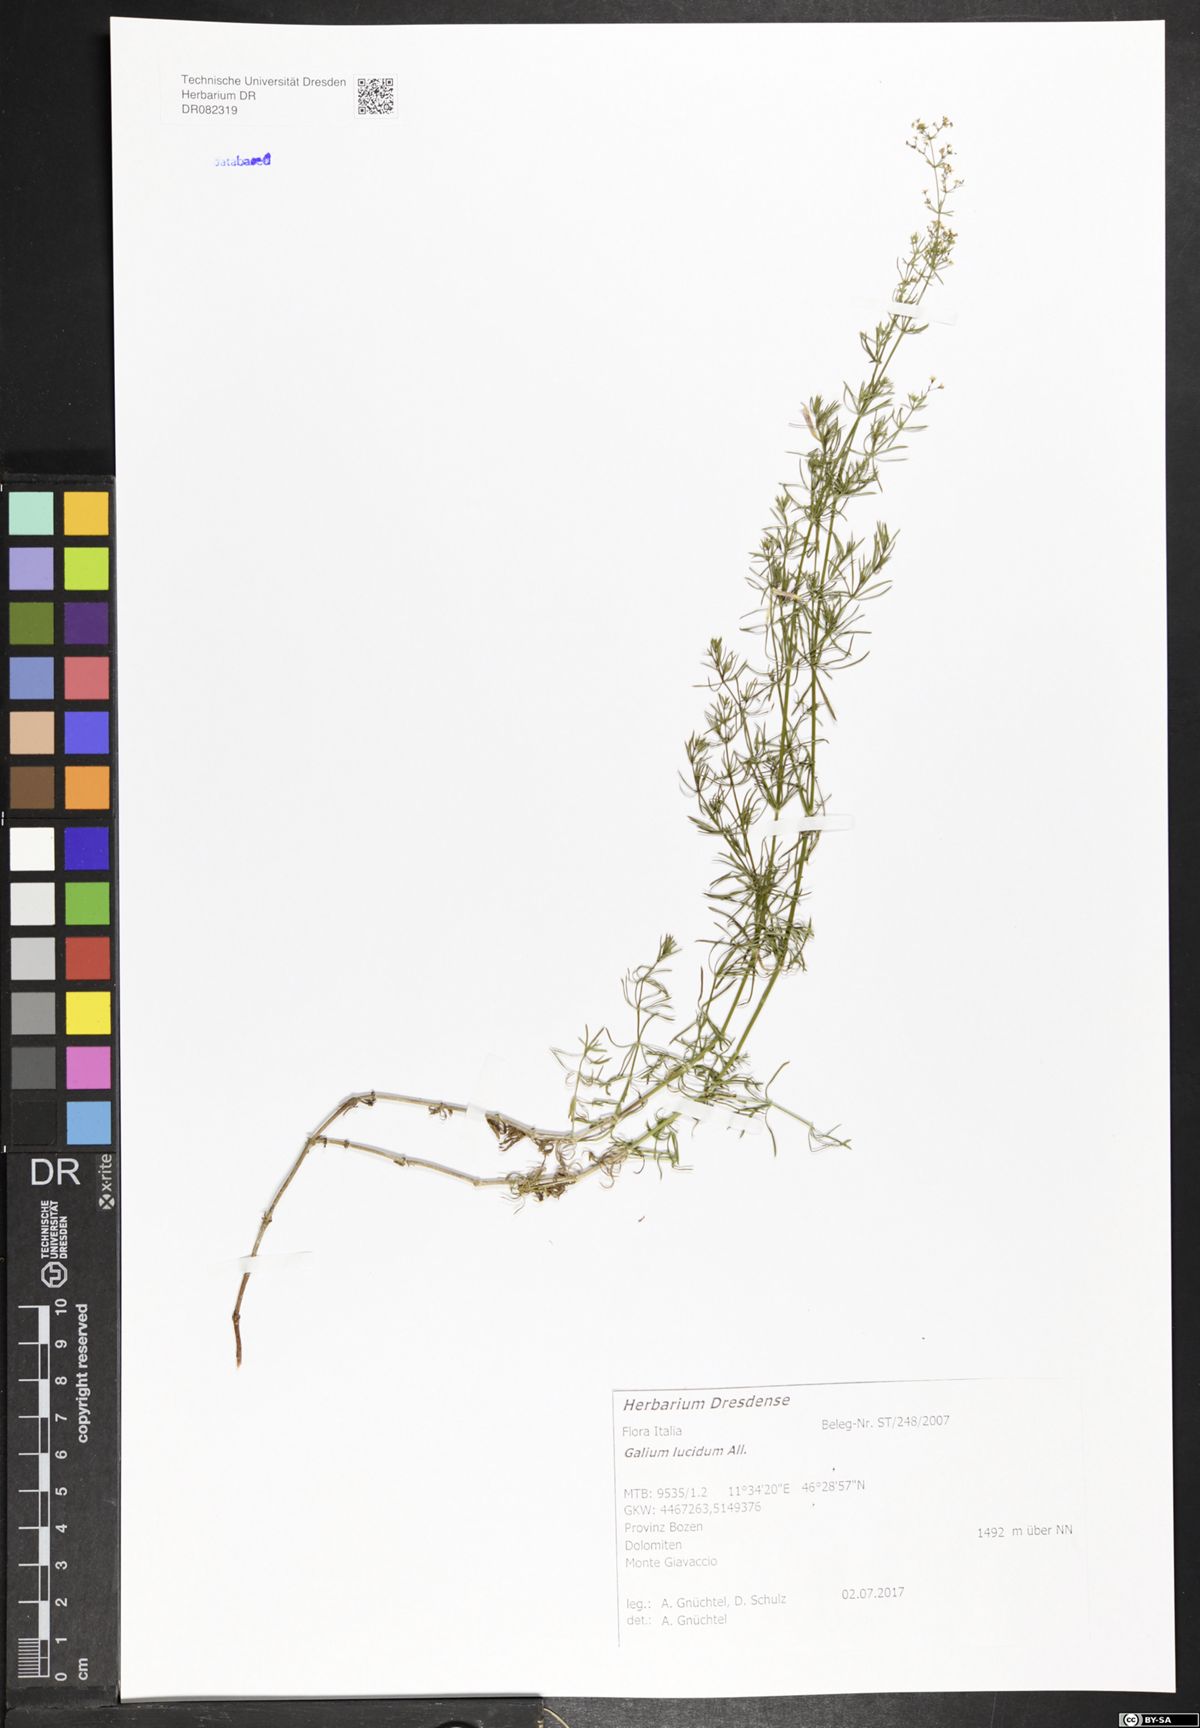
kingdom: Plantae
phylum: Tracheophyta
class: Magnoliopsida
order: Gentianales
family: Rubiaceae
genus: Galium
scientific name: Galium lucidum
